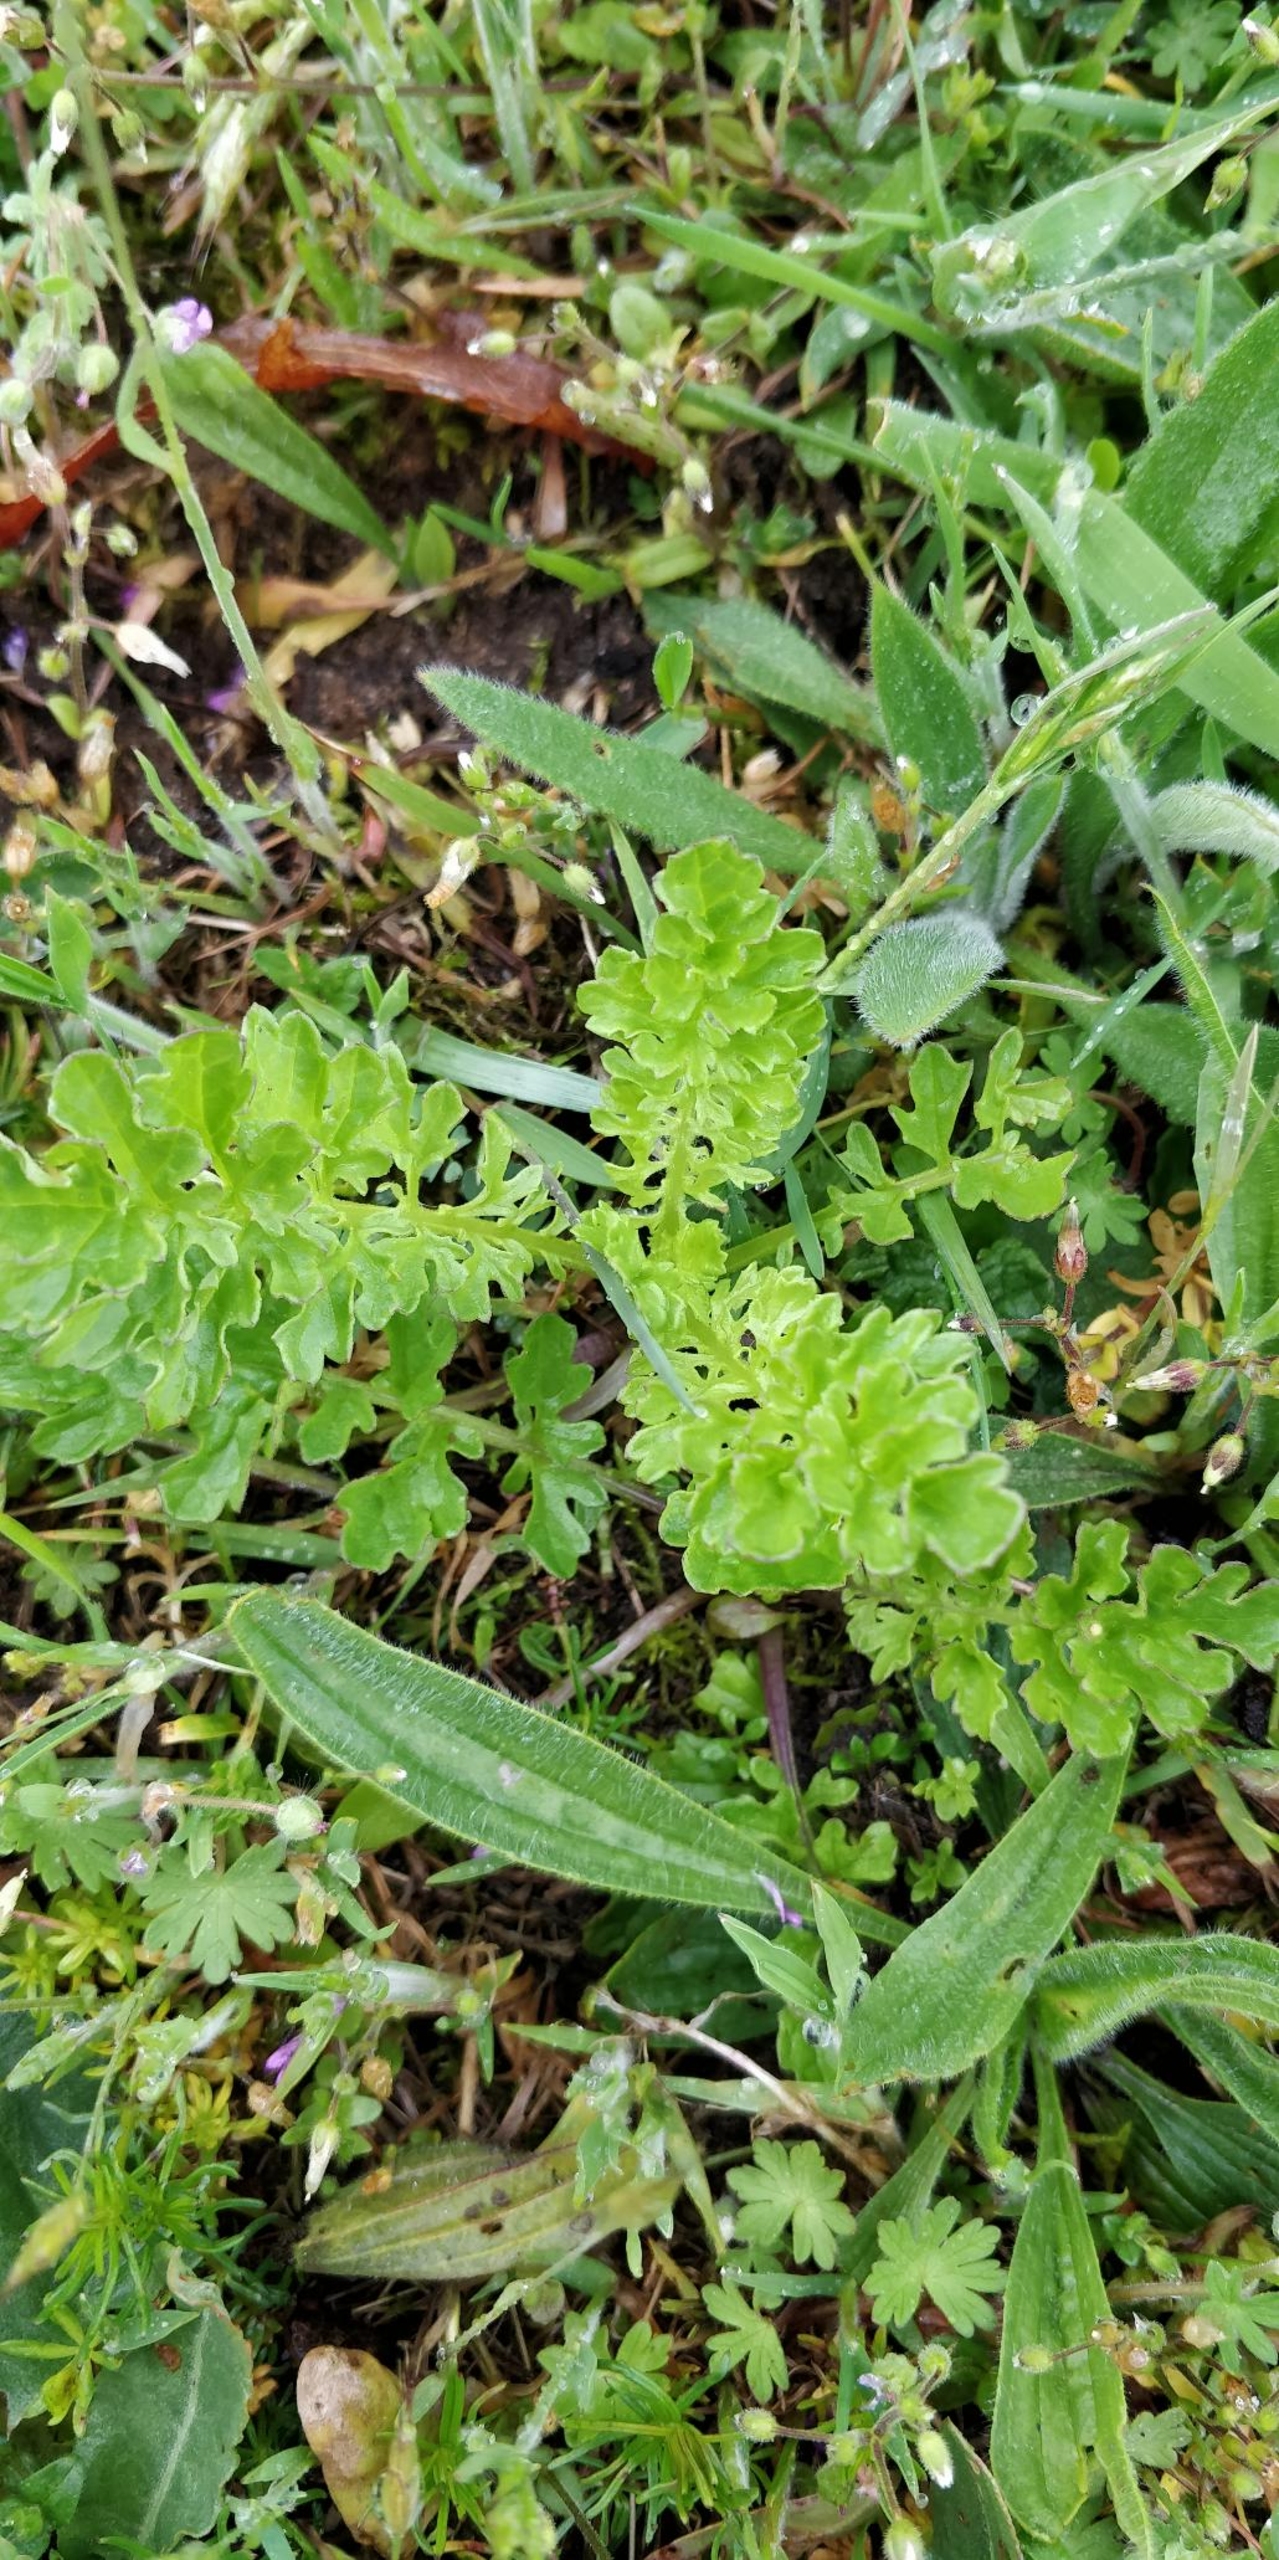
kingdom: Plantae
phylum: Tracheophyta
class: Magnoliopsida
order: Asterales
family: Asteraceae
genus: Jacobaea
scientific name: Jacobaea vulgaris
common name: Eng-brandbæger
